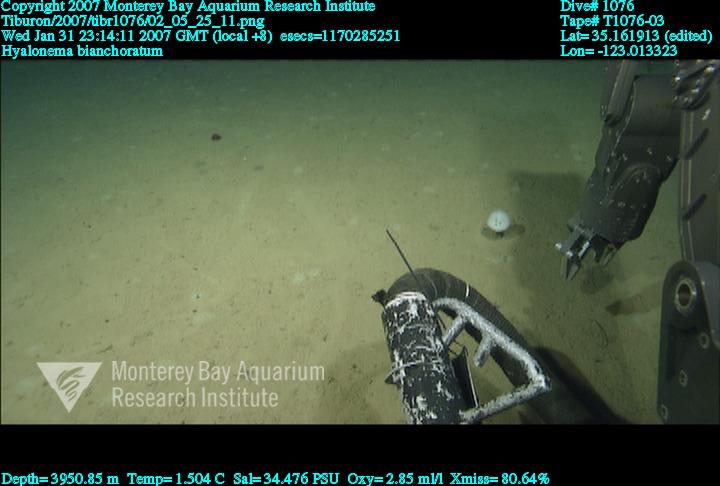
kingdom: Animalia
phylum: Porifera
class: Hexactinellida
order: Amphidiscosida
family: Hyalonematidae
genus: Hyalonema
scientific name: Hyalonema bianchoratum
